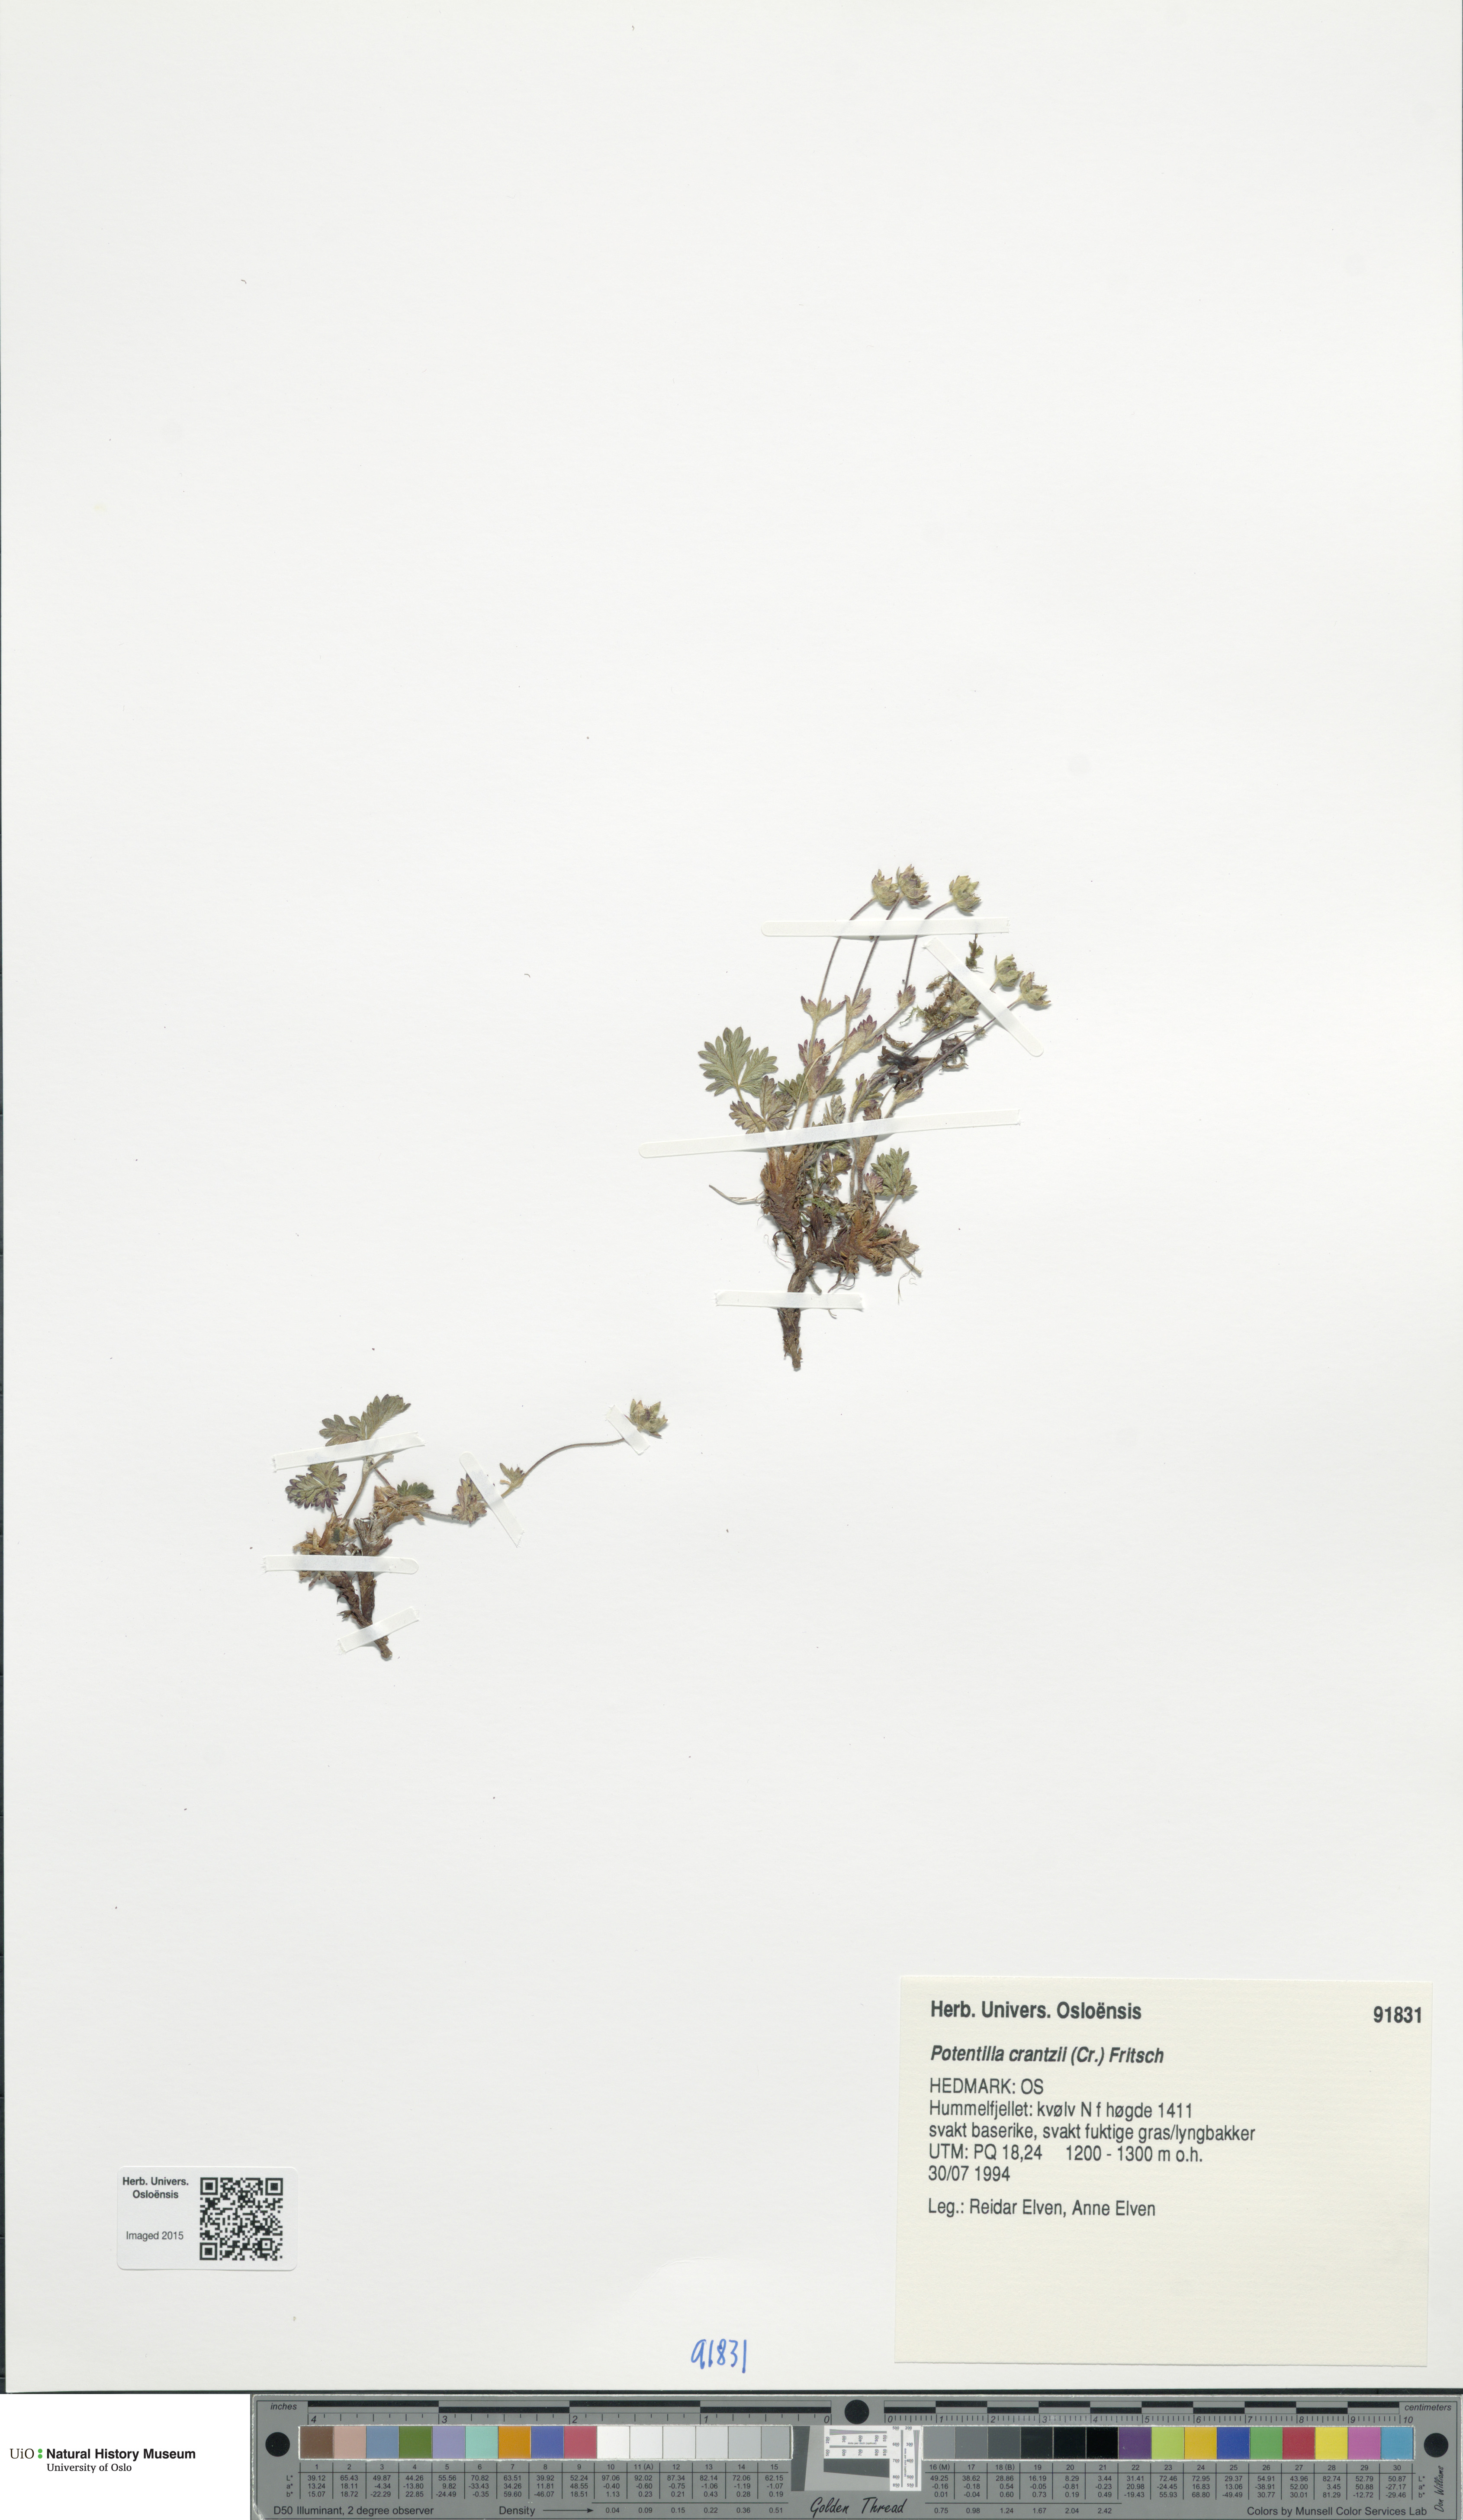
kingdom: Plantae
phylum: Tracheophyta
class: Magnoliopsida
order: Rosales
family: Rosaceae
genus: Potentilla
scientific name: Potentilla crantzii
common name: Alpine cinquefoil
